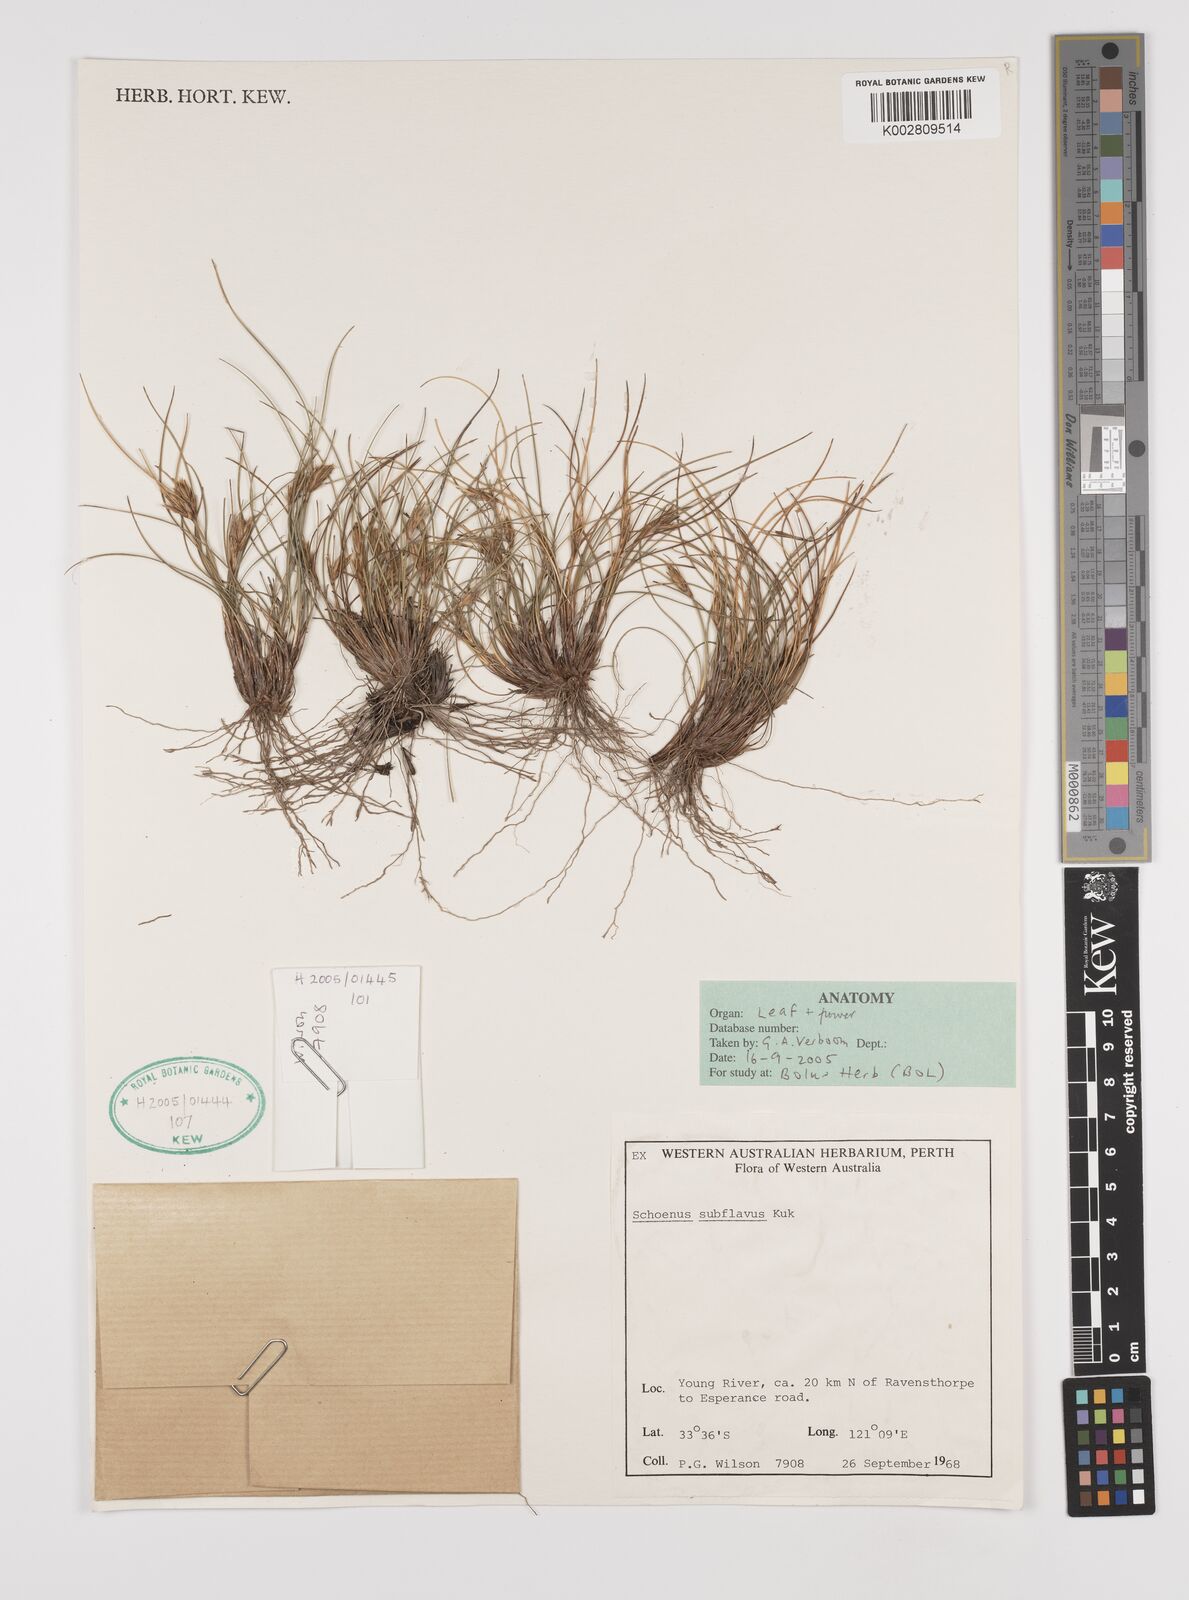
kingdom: Plantae
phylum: Tracheophyta
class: Liliopsida
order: Poales
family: Cyperaceae
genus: Schoenus
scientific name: Schoenus subflavus
